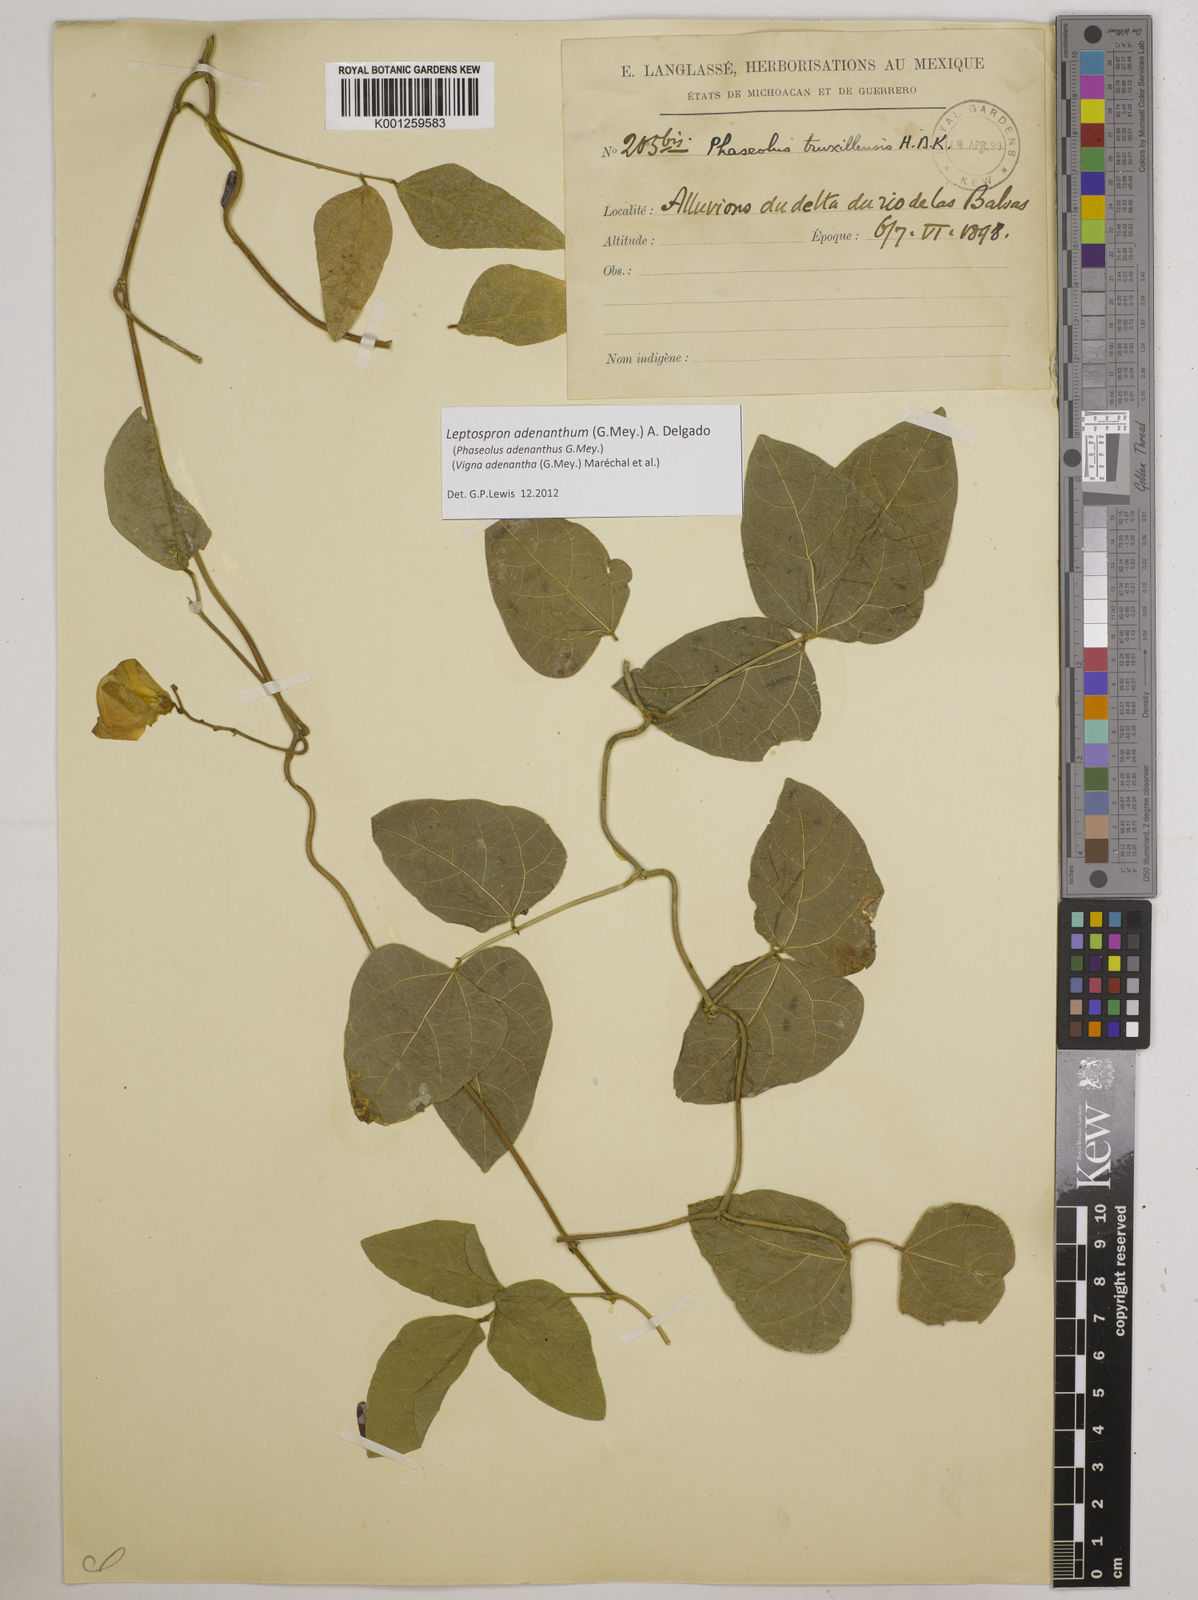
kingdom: Plantae
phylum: Tracheophyta
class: Magnoliopsida
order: Fabales
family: Fabaceae
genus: Leptospron
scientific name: Leptospron adenanthum
